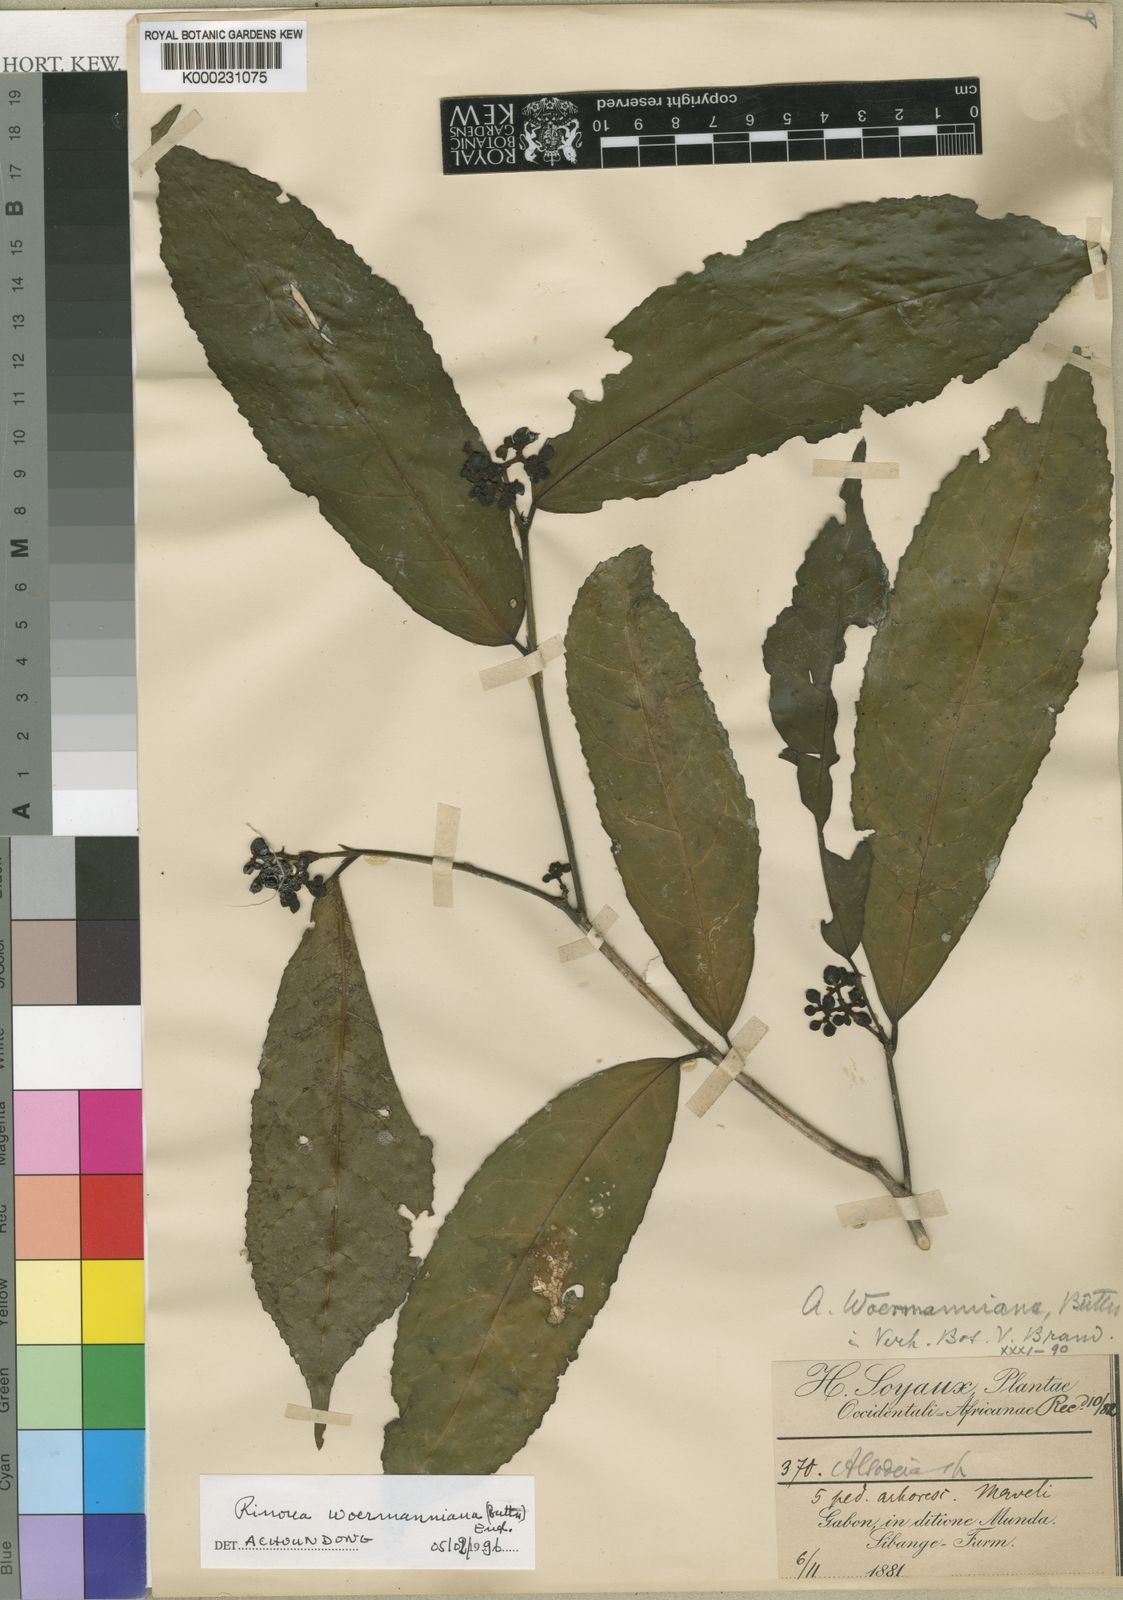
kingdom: Plantae
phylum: Tracheophyta
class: Magnoliopsida
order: Malpighiales
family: Violaceae
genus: Rinorea
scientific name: Rinorea
